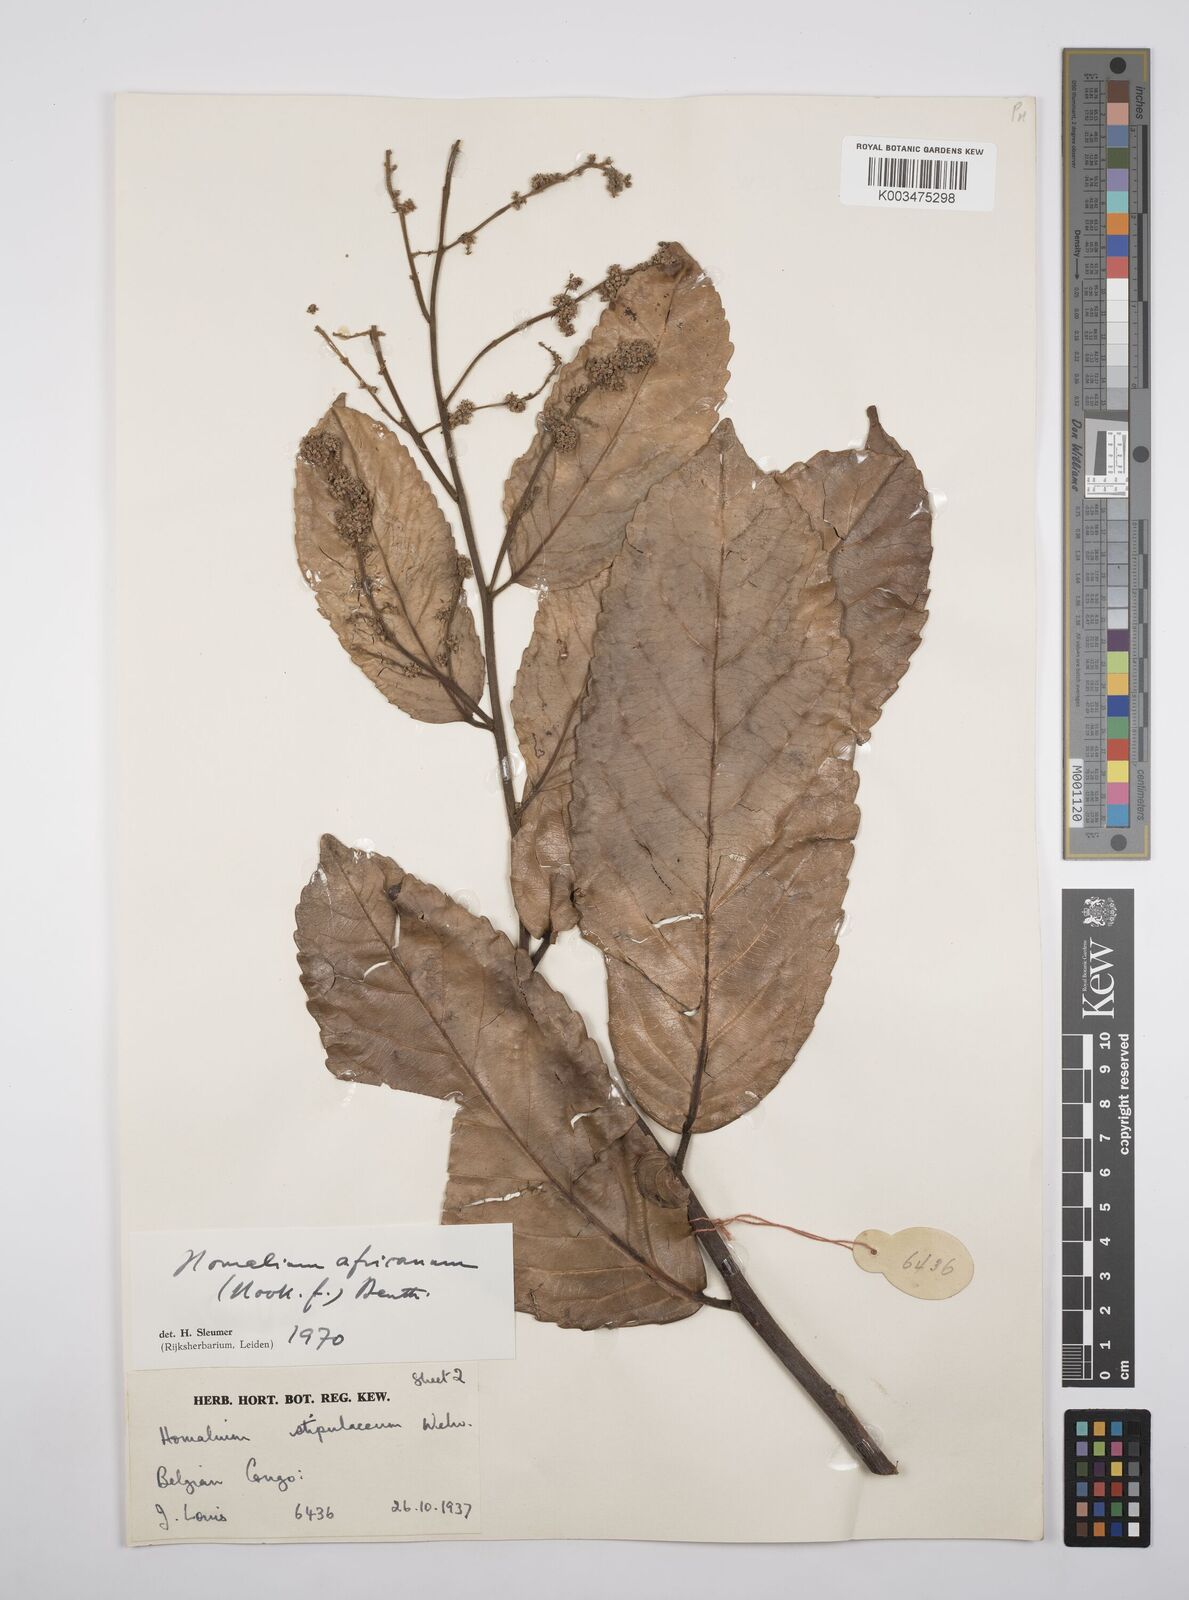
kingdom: Plantae
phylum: Tracheophyta
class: Magnoliopsida
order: Malpighiales
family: Salicaceae
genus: Homalium
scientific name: Homalium africanum
